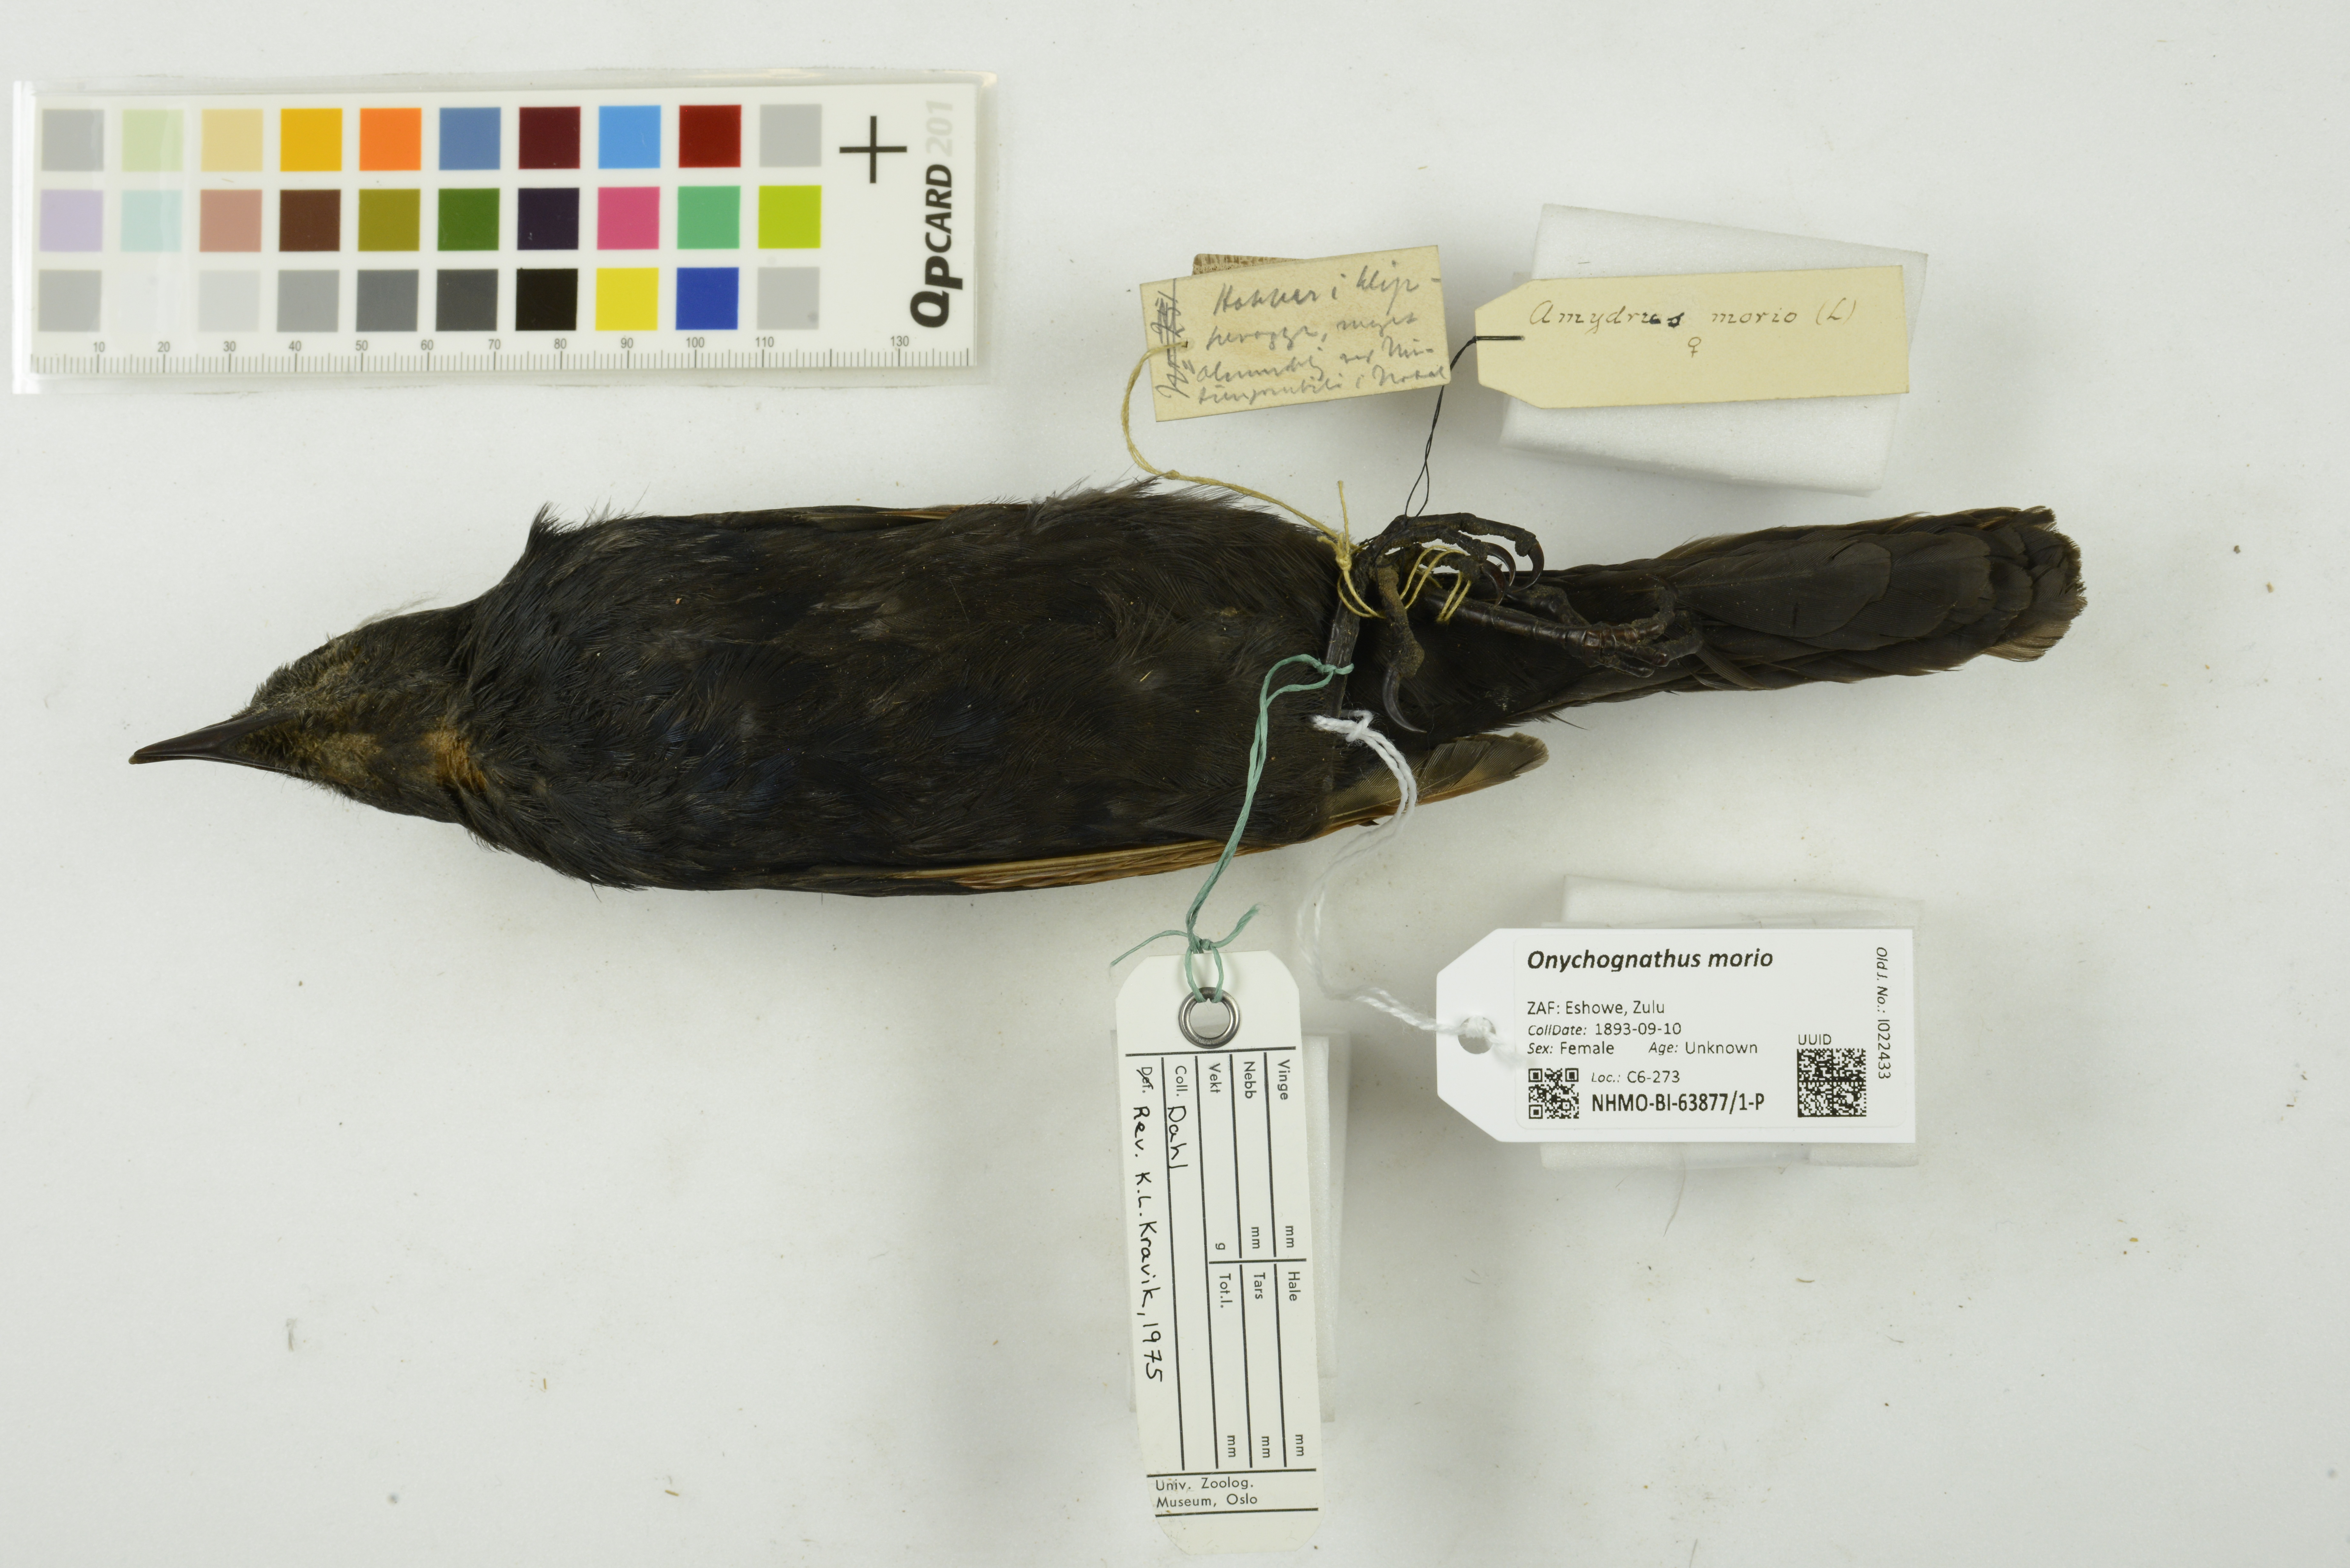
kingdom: Animalia
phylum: Chordata
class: Aves
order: Passeriformes
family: Sturnidae
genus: Onychognathus
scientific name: Onychognathus morio
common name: Red-winged starling
